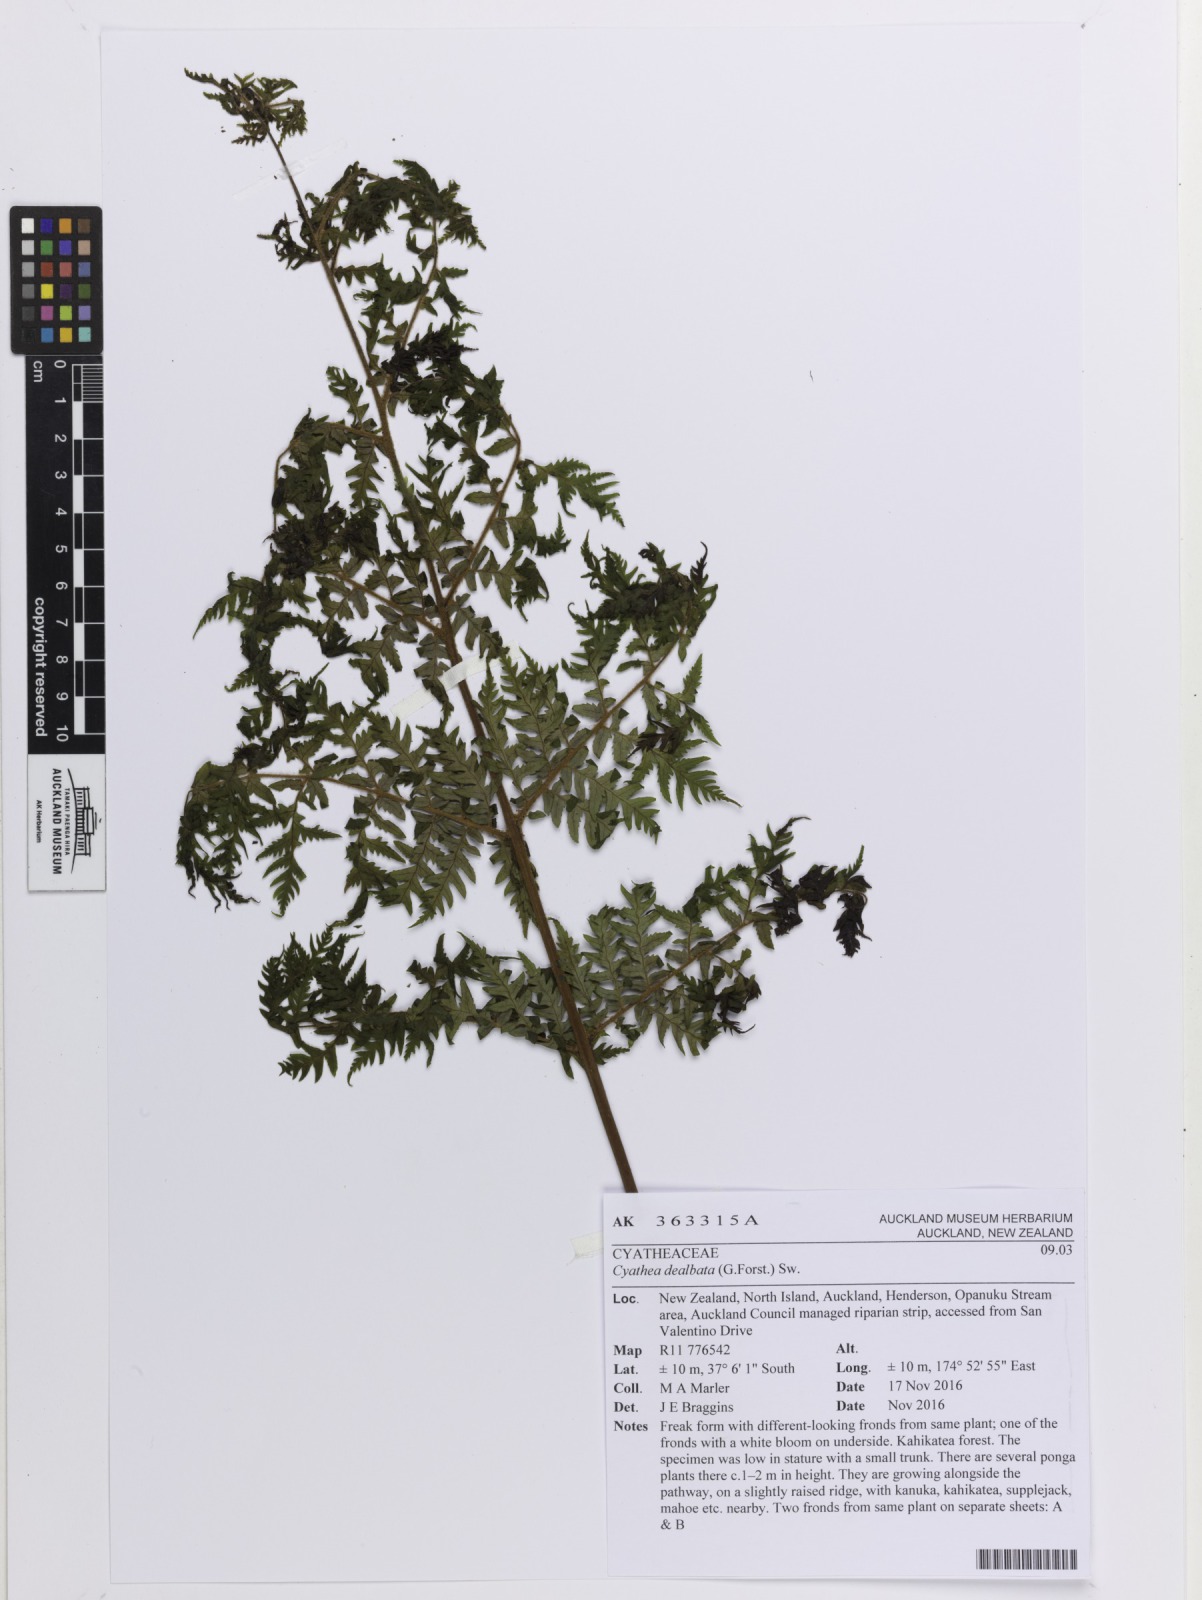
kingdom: Plantae
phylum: Tracheophyta
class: Polypodiopsida
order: Cyatheales
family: Cyatheaceae
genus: Alsophila
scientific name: Alsophila dealbata
